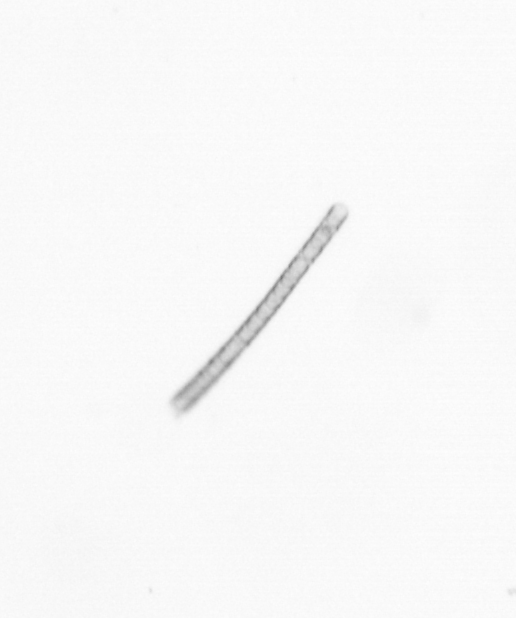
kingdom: Chromista
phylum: Ochrophyta
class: Bacillariophyceae
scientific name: Bacillariophyceae
